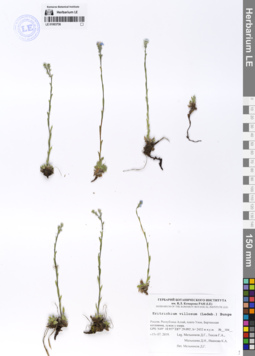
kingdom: Plantae
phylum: Tracheophyta
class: Magnoliopsida
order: Boraginales
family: Boraginaceae
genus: Eritrichium
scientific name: Eritrichium villosum
